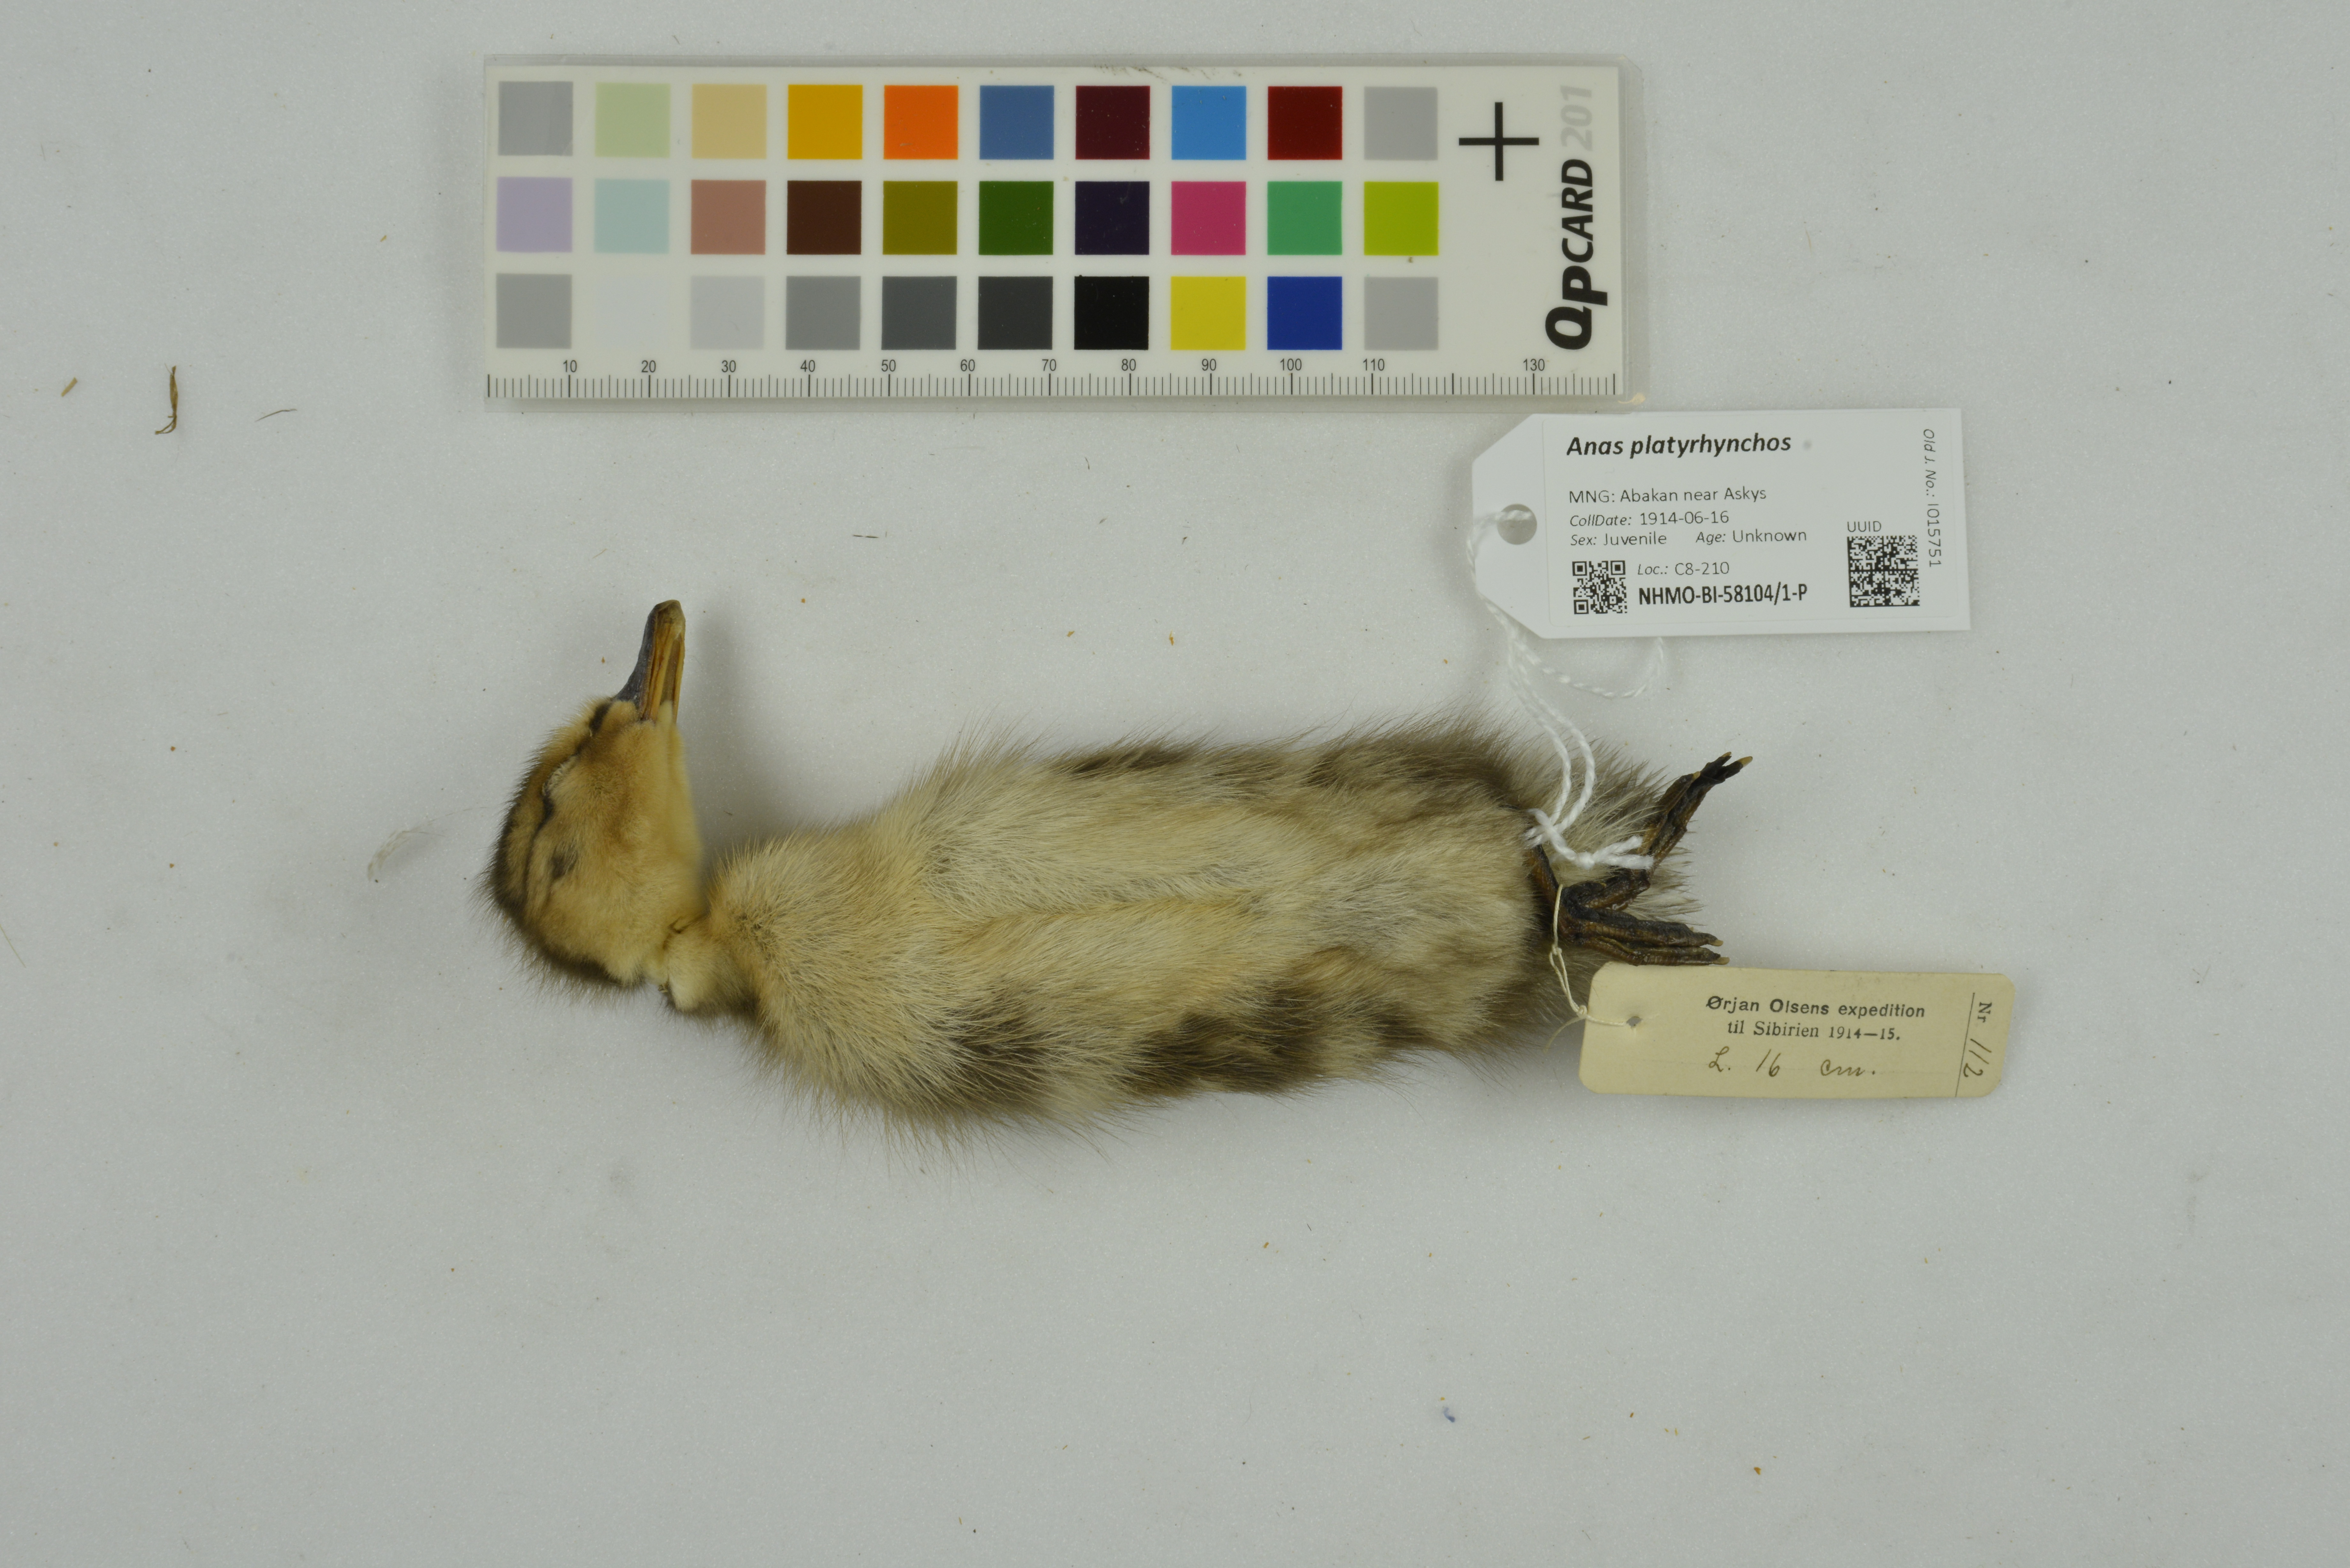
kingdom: Animalia
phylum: Chordata
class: Aves
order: Anseriformes
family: Anatidae
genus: Anas
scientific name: Anas platyrhynchos
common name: Mallard
